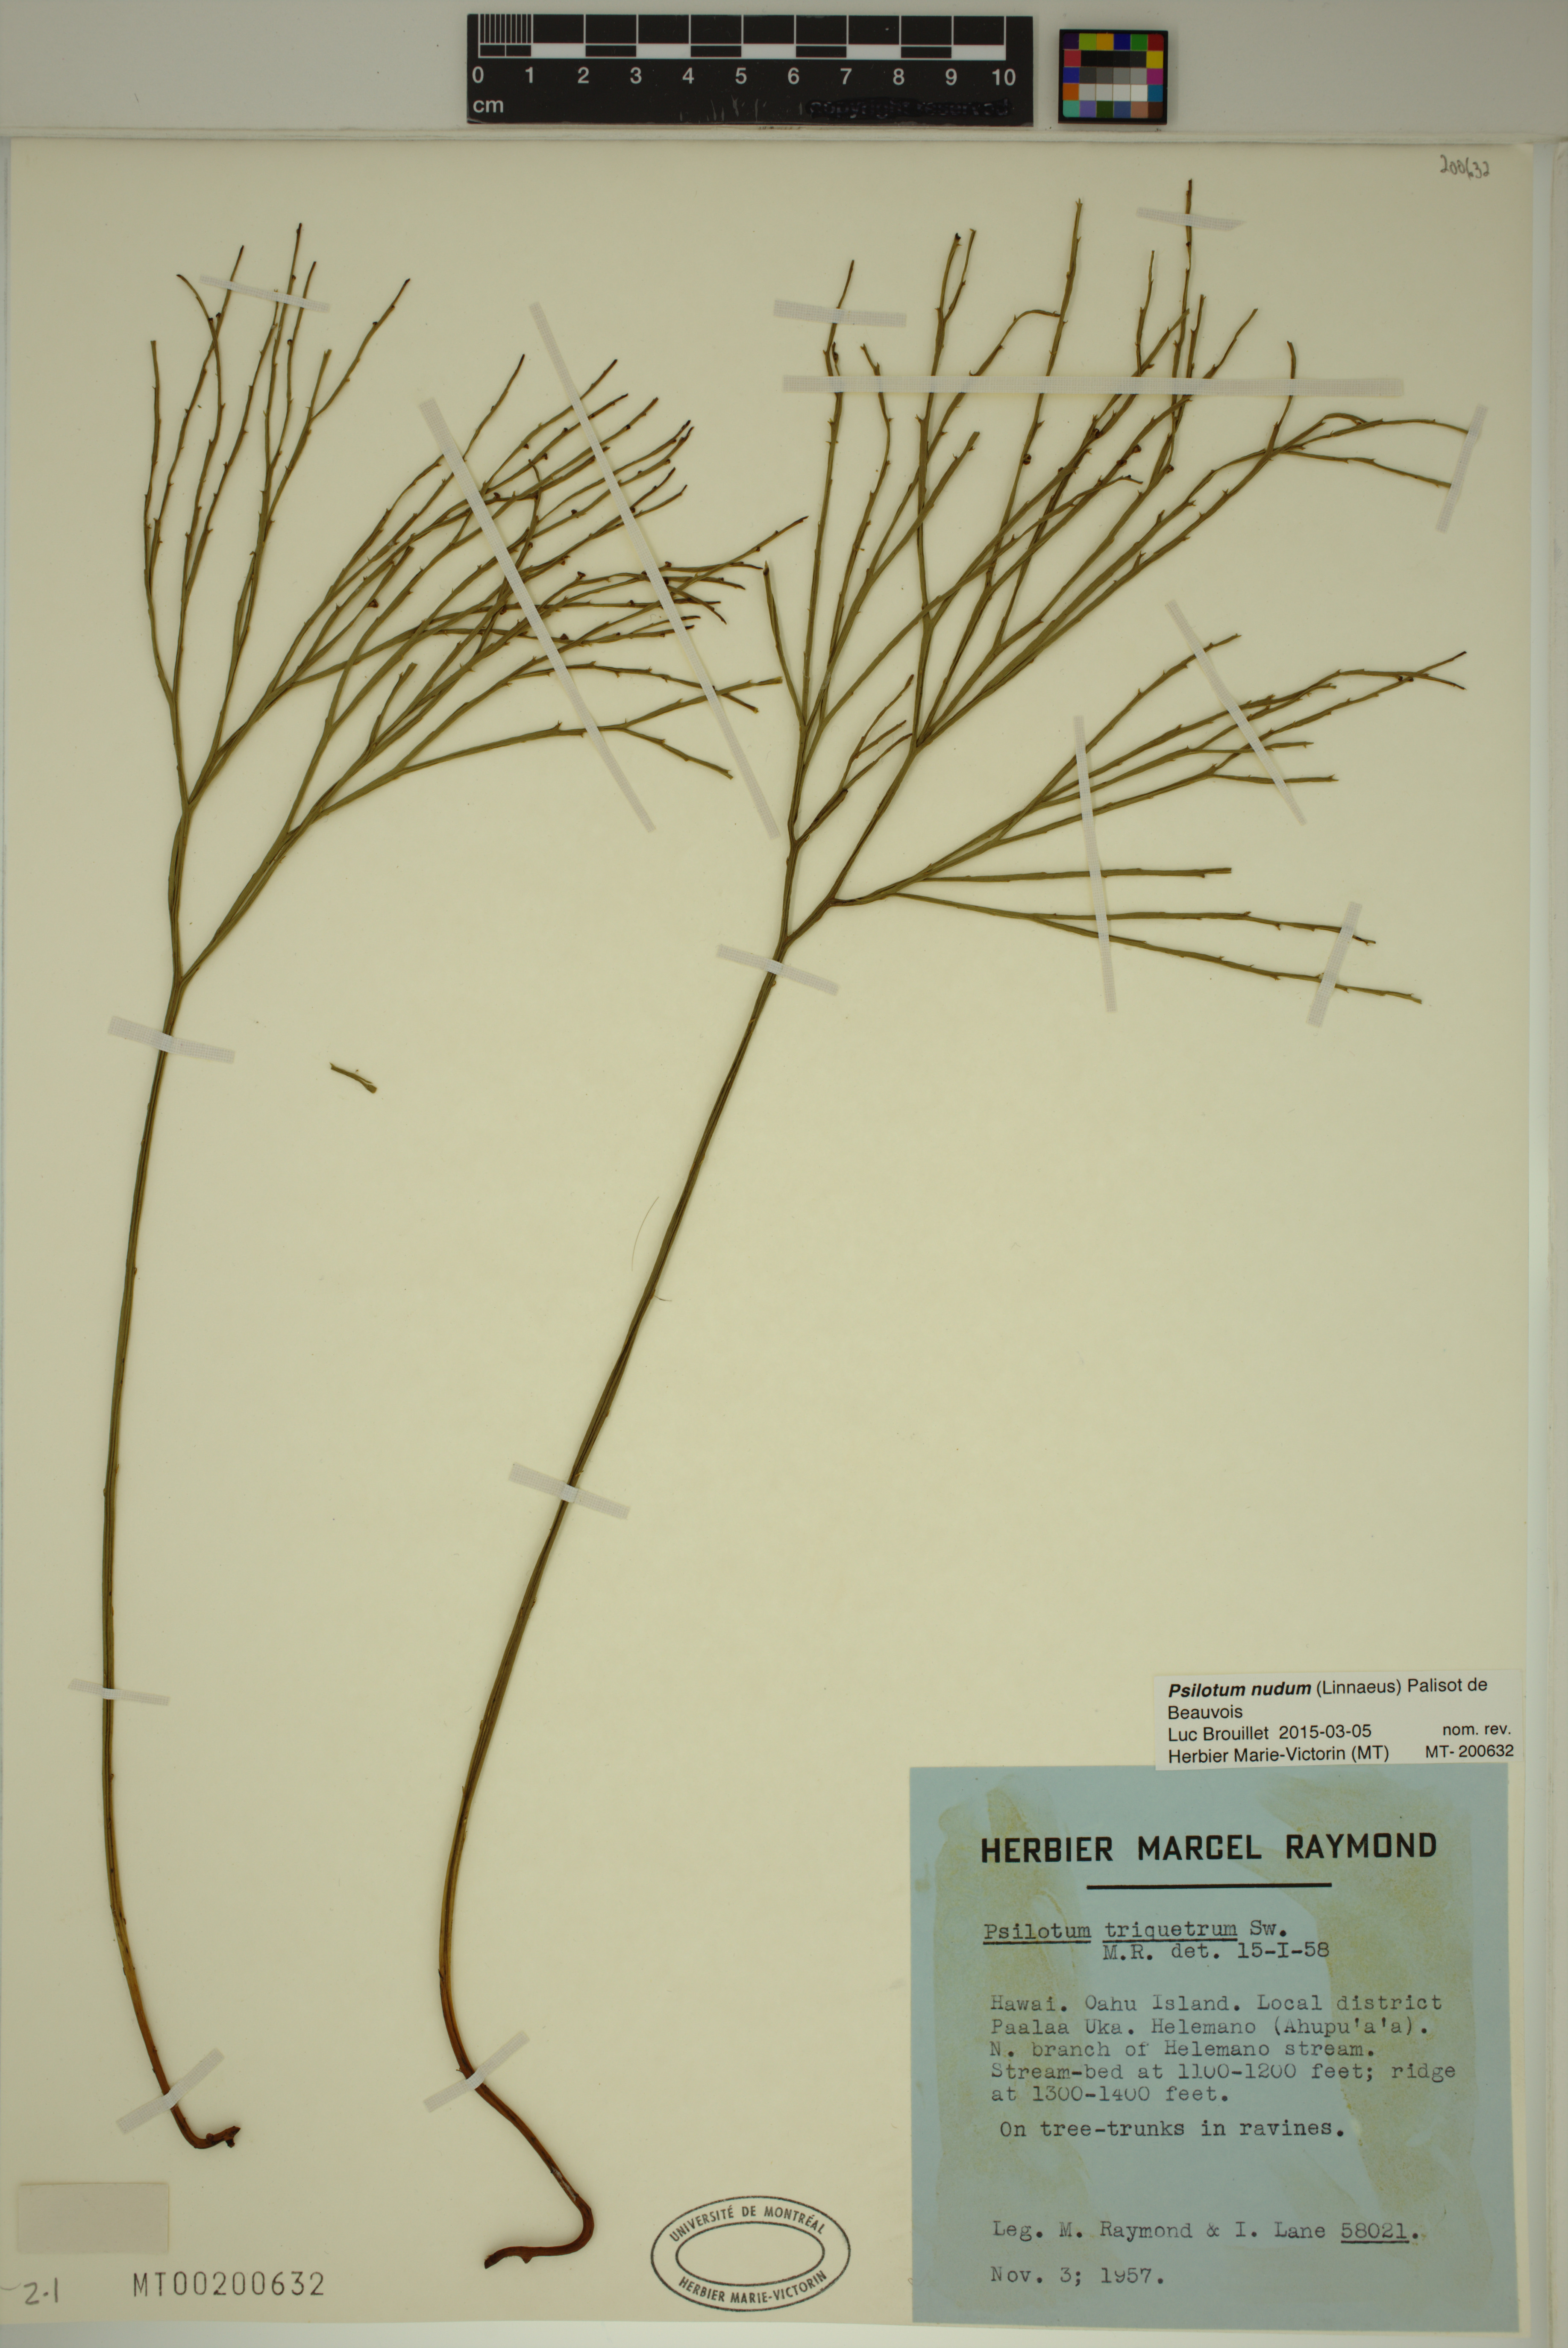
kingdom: Plantae
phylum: Tracheophyta
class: Polypodiopsida
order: Psilotales
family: Psilotaceae
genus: Psilotum
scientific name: Psilotum nudum
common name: Skeleton fork fern
